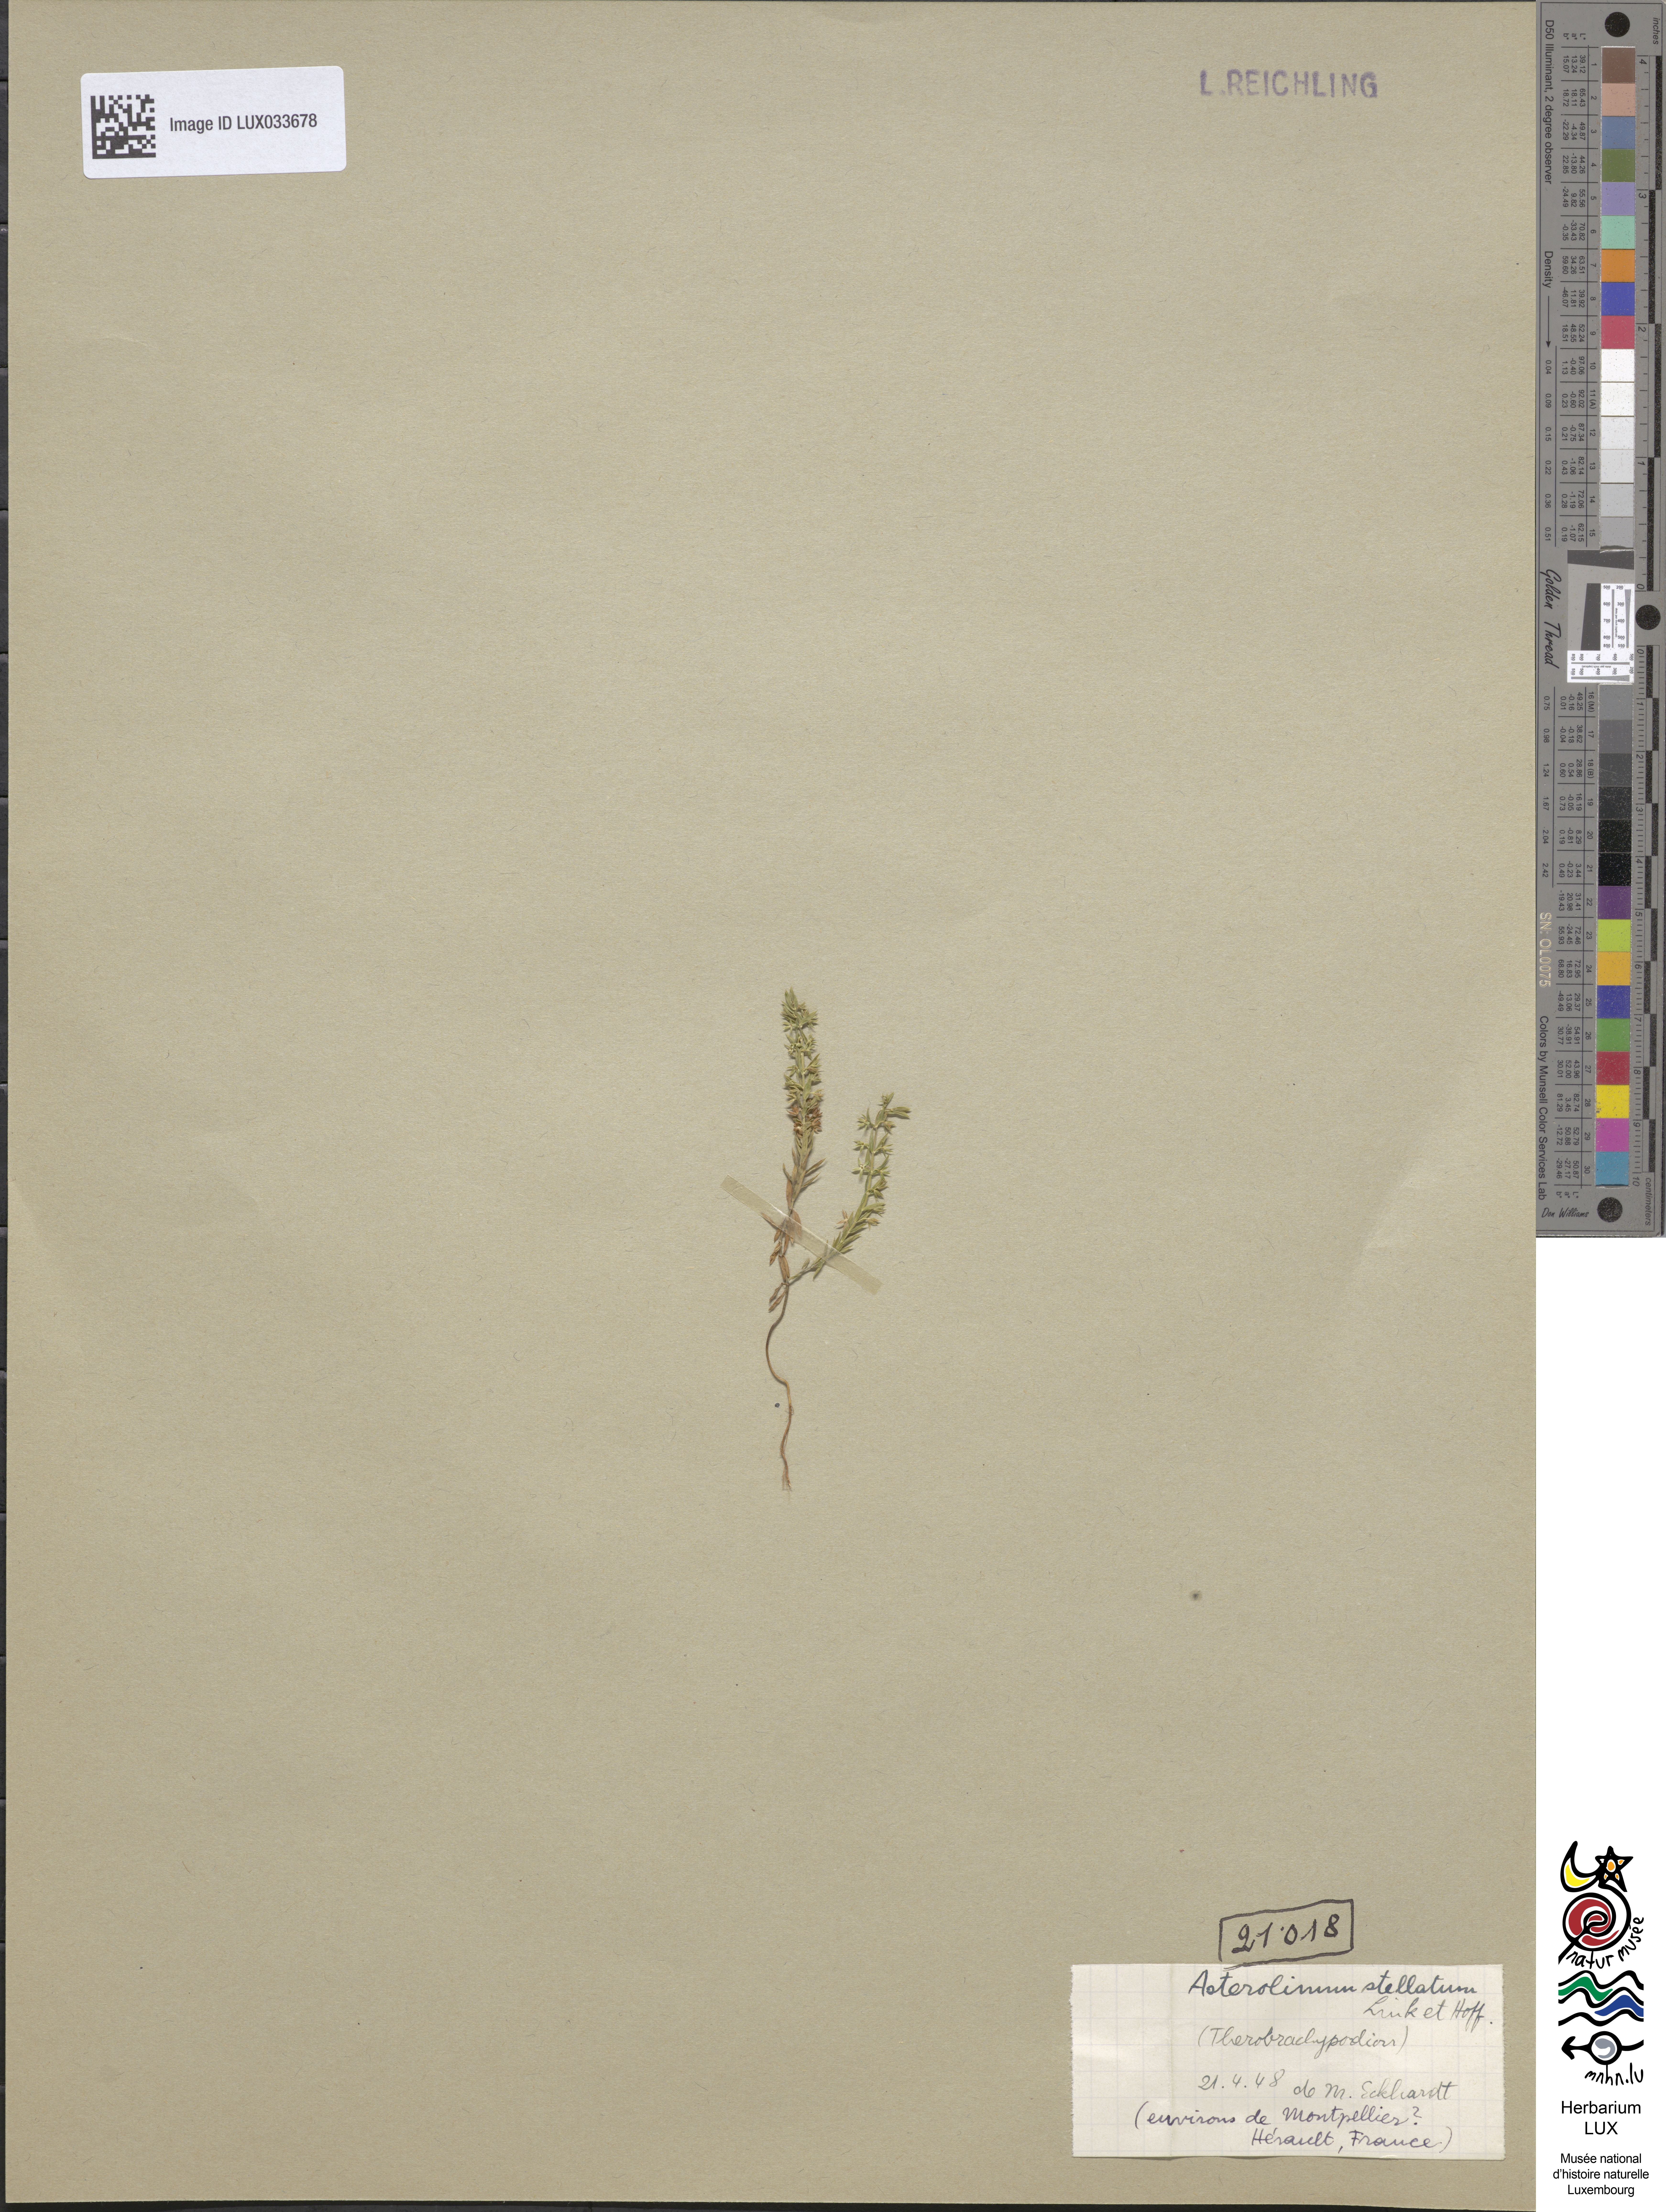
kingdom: Plantae
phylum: Tracheophyta
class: Magnoliopsida
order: Ericales
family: Primulaceae
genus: Lysimachia
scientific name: Lysimachia linum-stellatum
